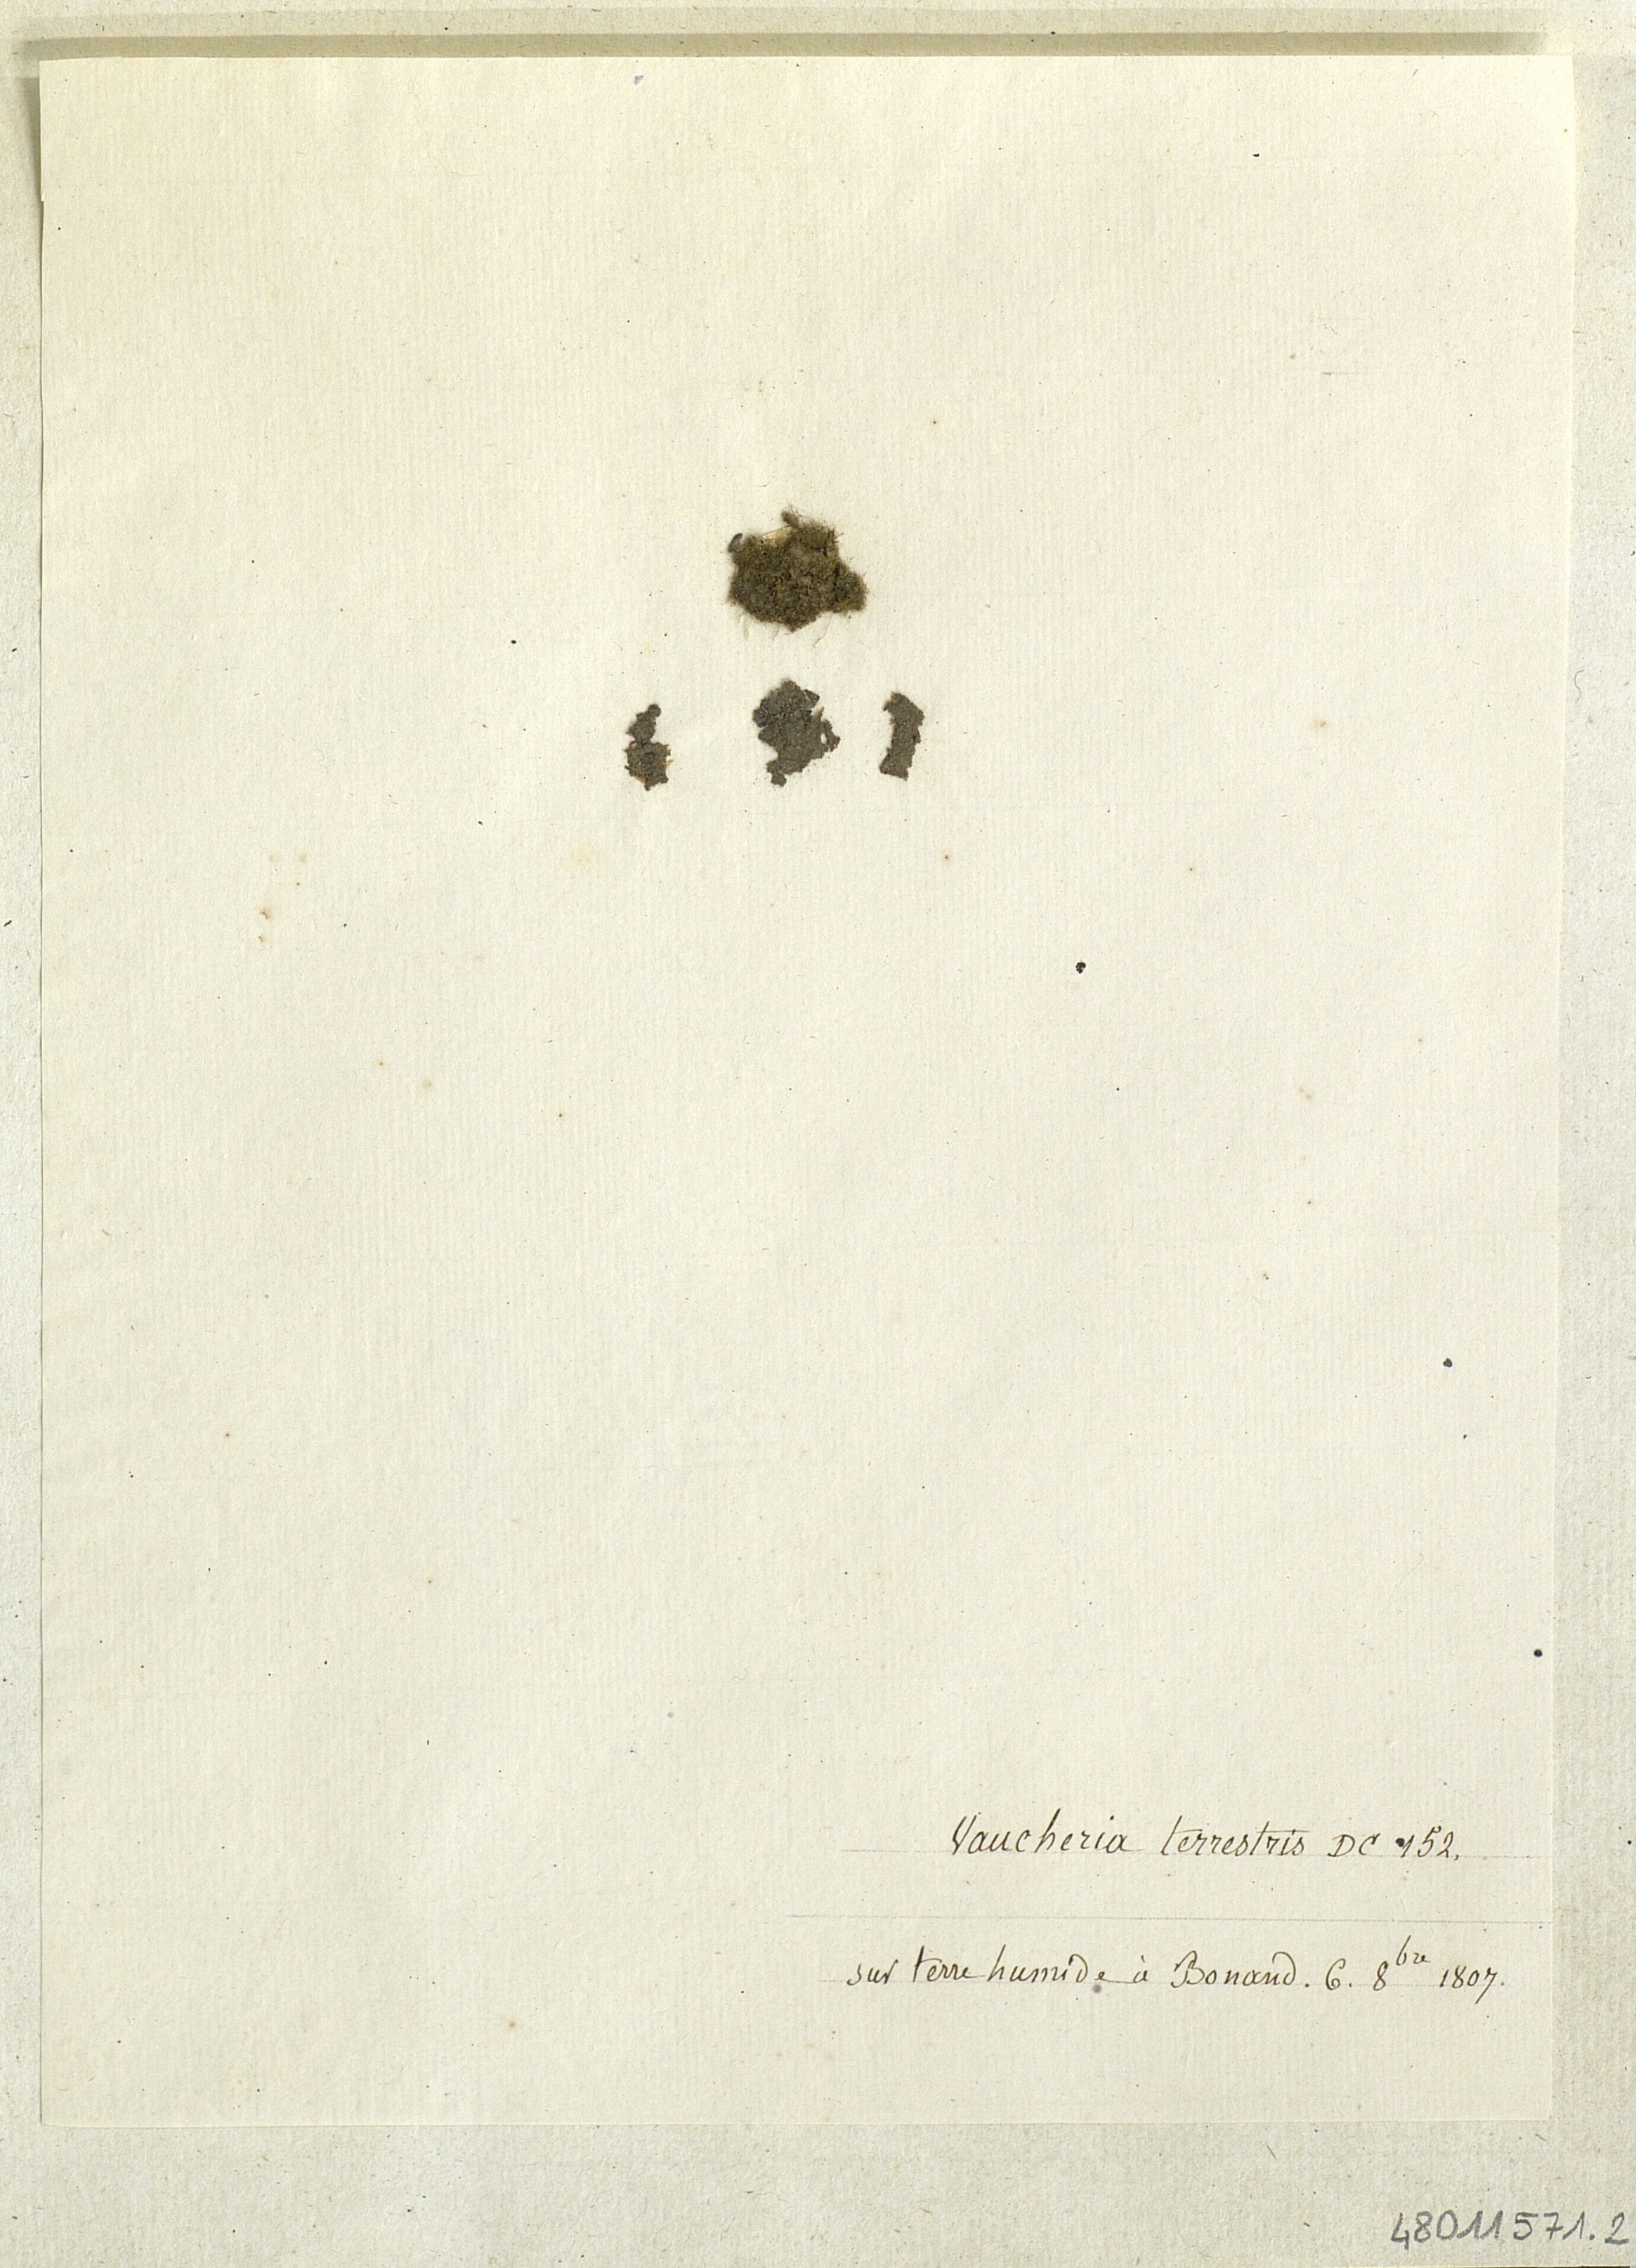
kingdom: Chromista
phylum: Ochrophyta
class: Xanthophyceae
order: Vaucheriales
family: Vaucheriaceae
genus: Vaucheria
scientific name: Vaucheria terrestris
